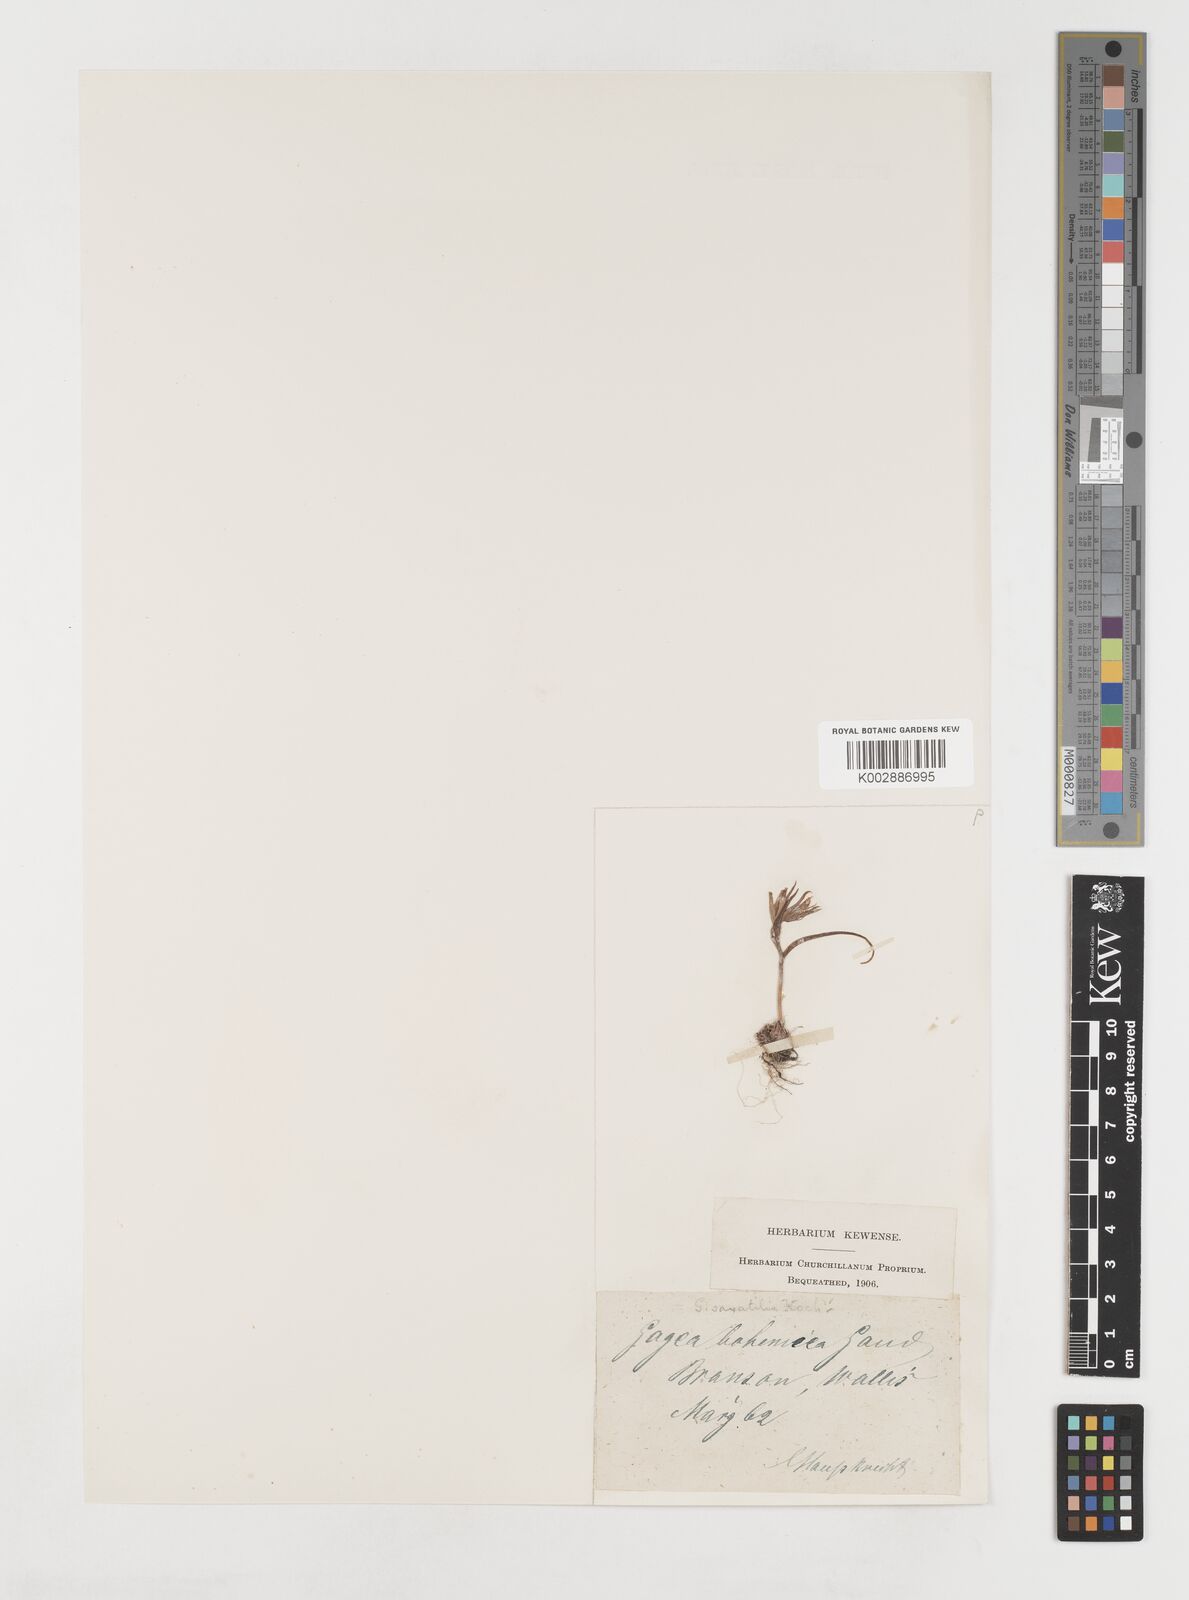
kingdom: Plantae
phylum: Tracheophyta
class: Liliopsida
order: Liliales
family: Liliaceae
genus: Gagea
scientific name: Gagea bohemica
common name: Early star-of-bethlehem
